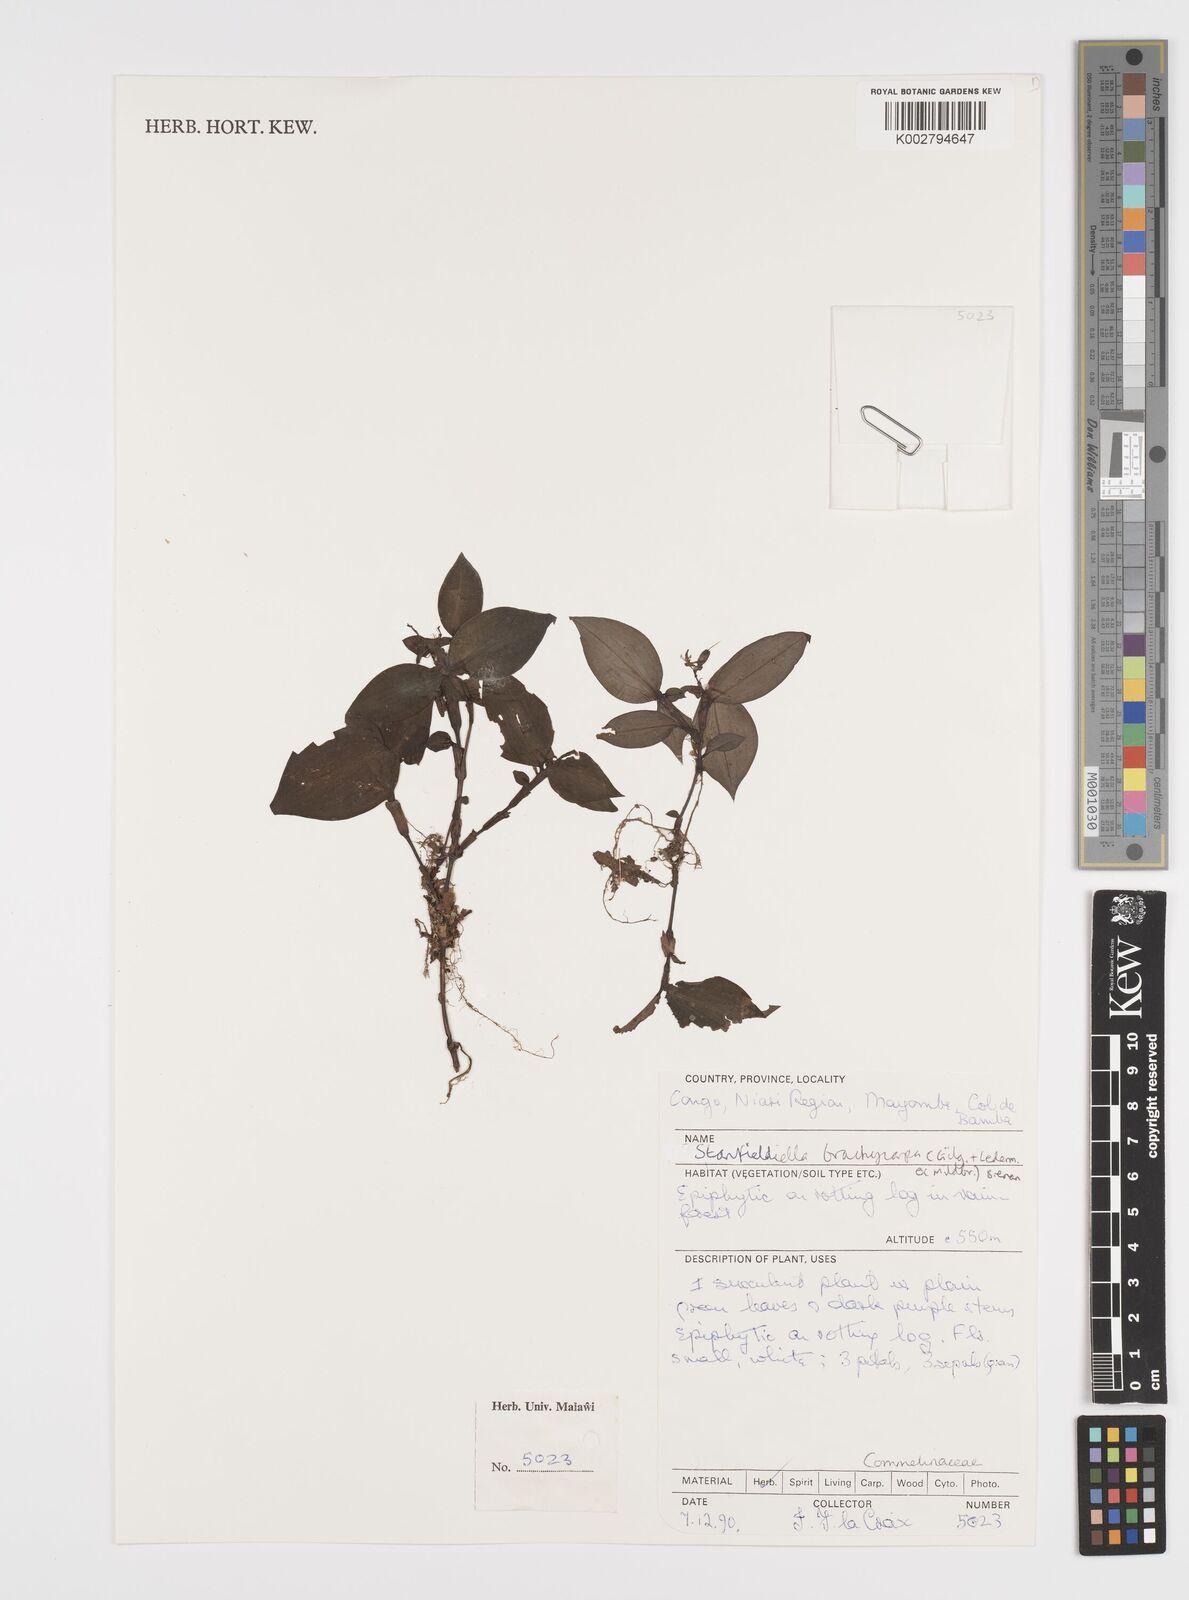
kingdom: Plantae
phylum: Tracheophyta
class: Liliopsida
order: Commelinales
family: Commelinaceae
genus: Stanfieldiella
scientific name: Stanfieldiella brachycarpa
